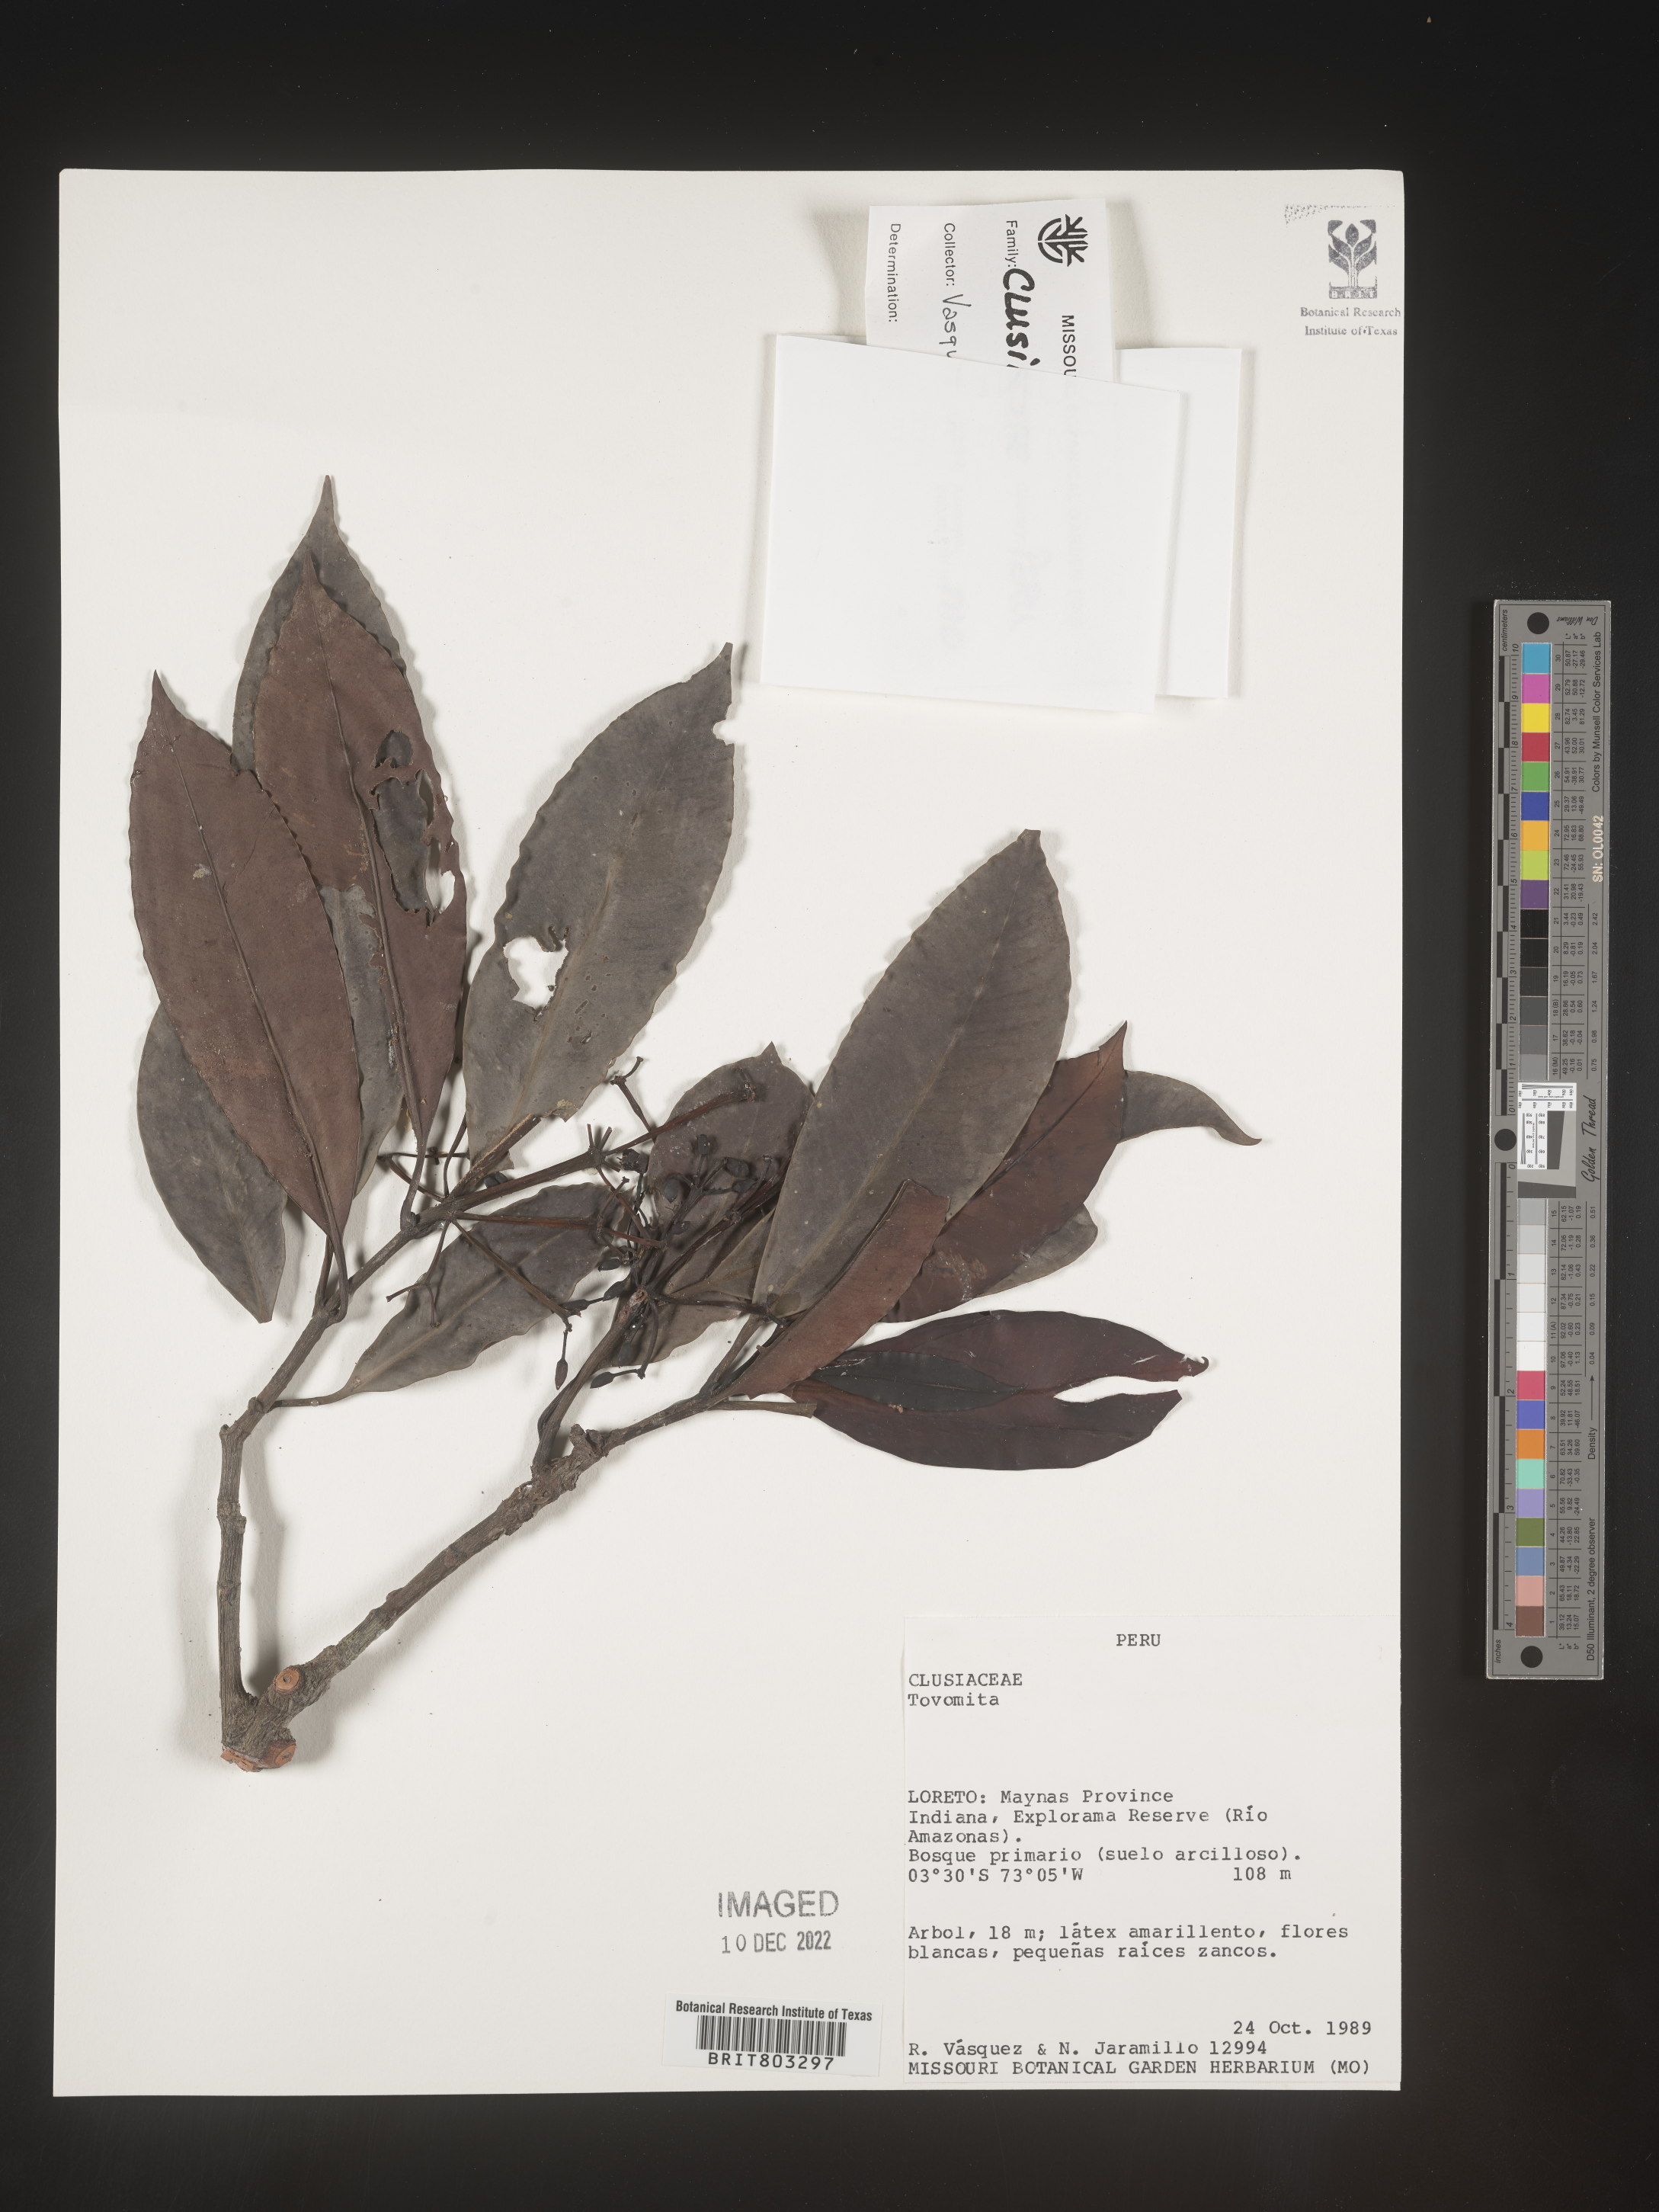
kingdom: Plantae
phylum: Tracheophyta
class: Magnoliopsida
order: Malpighiales
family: Clusiaceae
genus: Tovomita
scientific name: Tovomita
